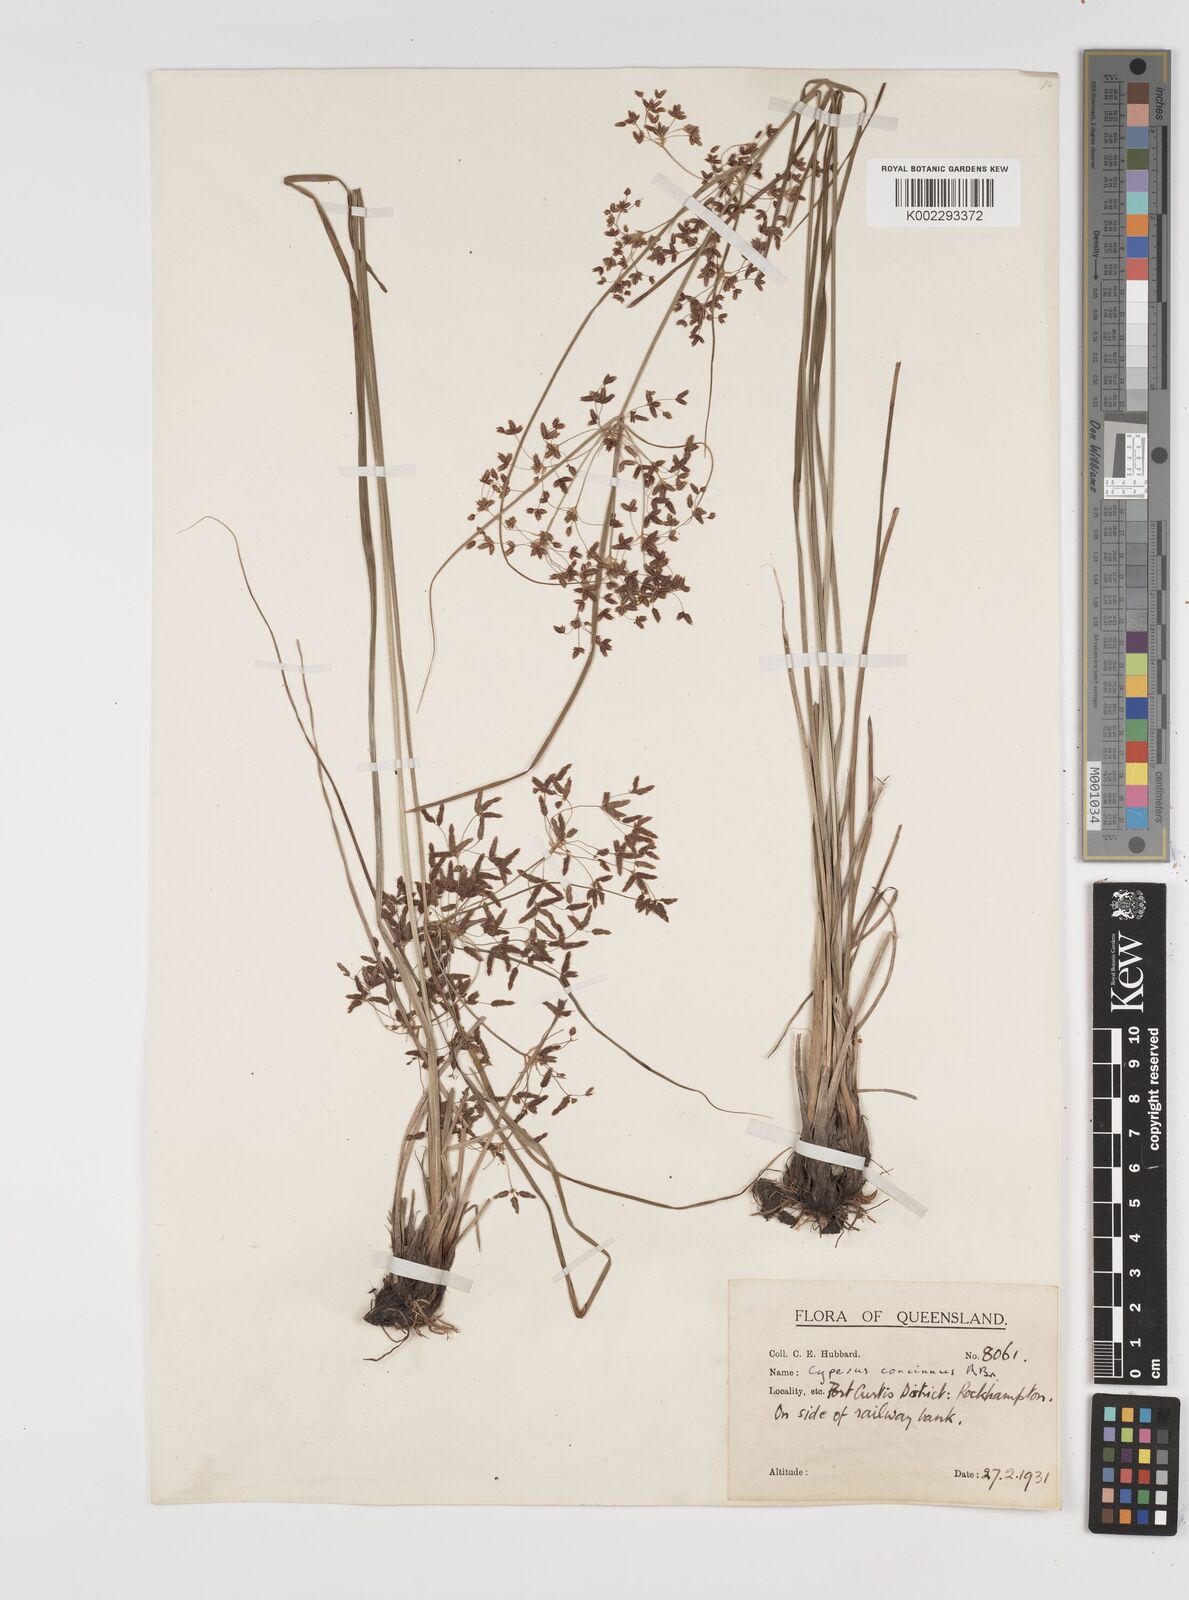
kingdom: Plantae
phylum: Tracheophyta
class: Liliopsida
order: Poales
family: Cyperaceae
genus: Cyperus
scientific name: Cyperus concinnus
